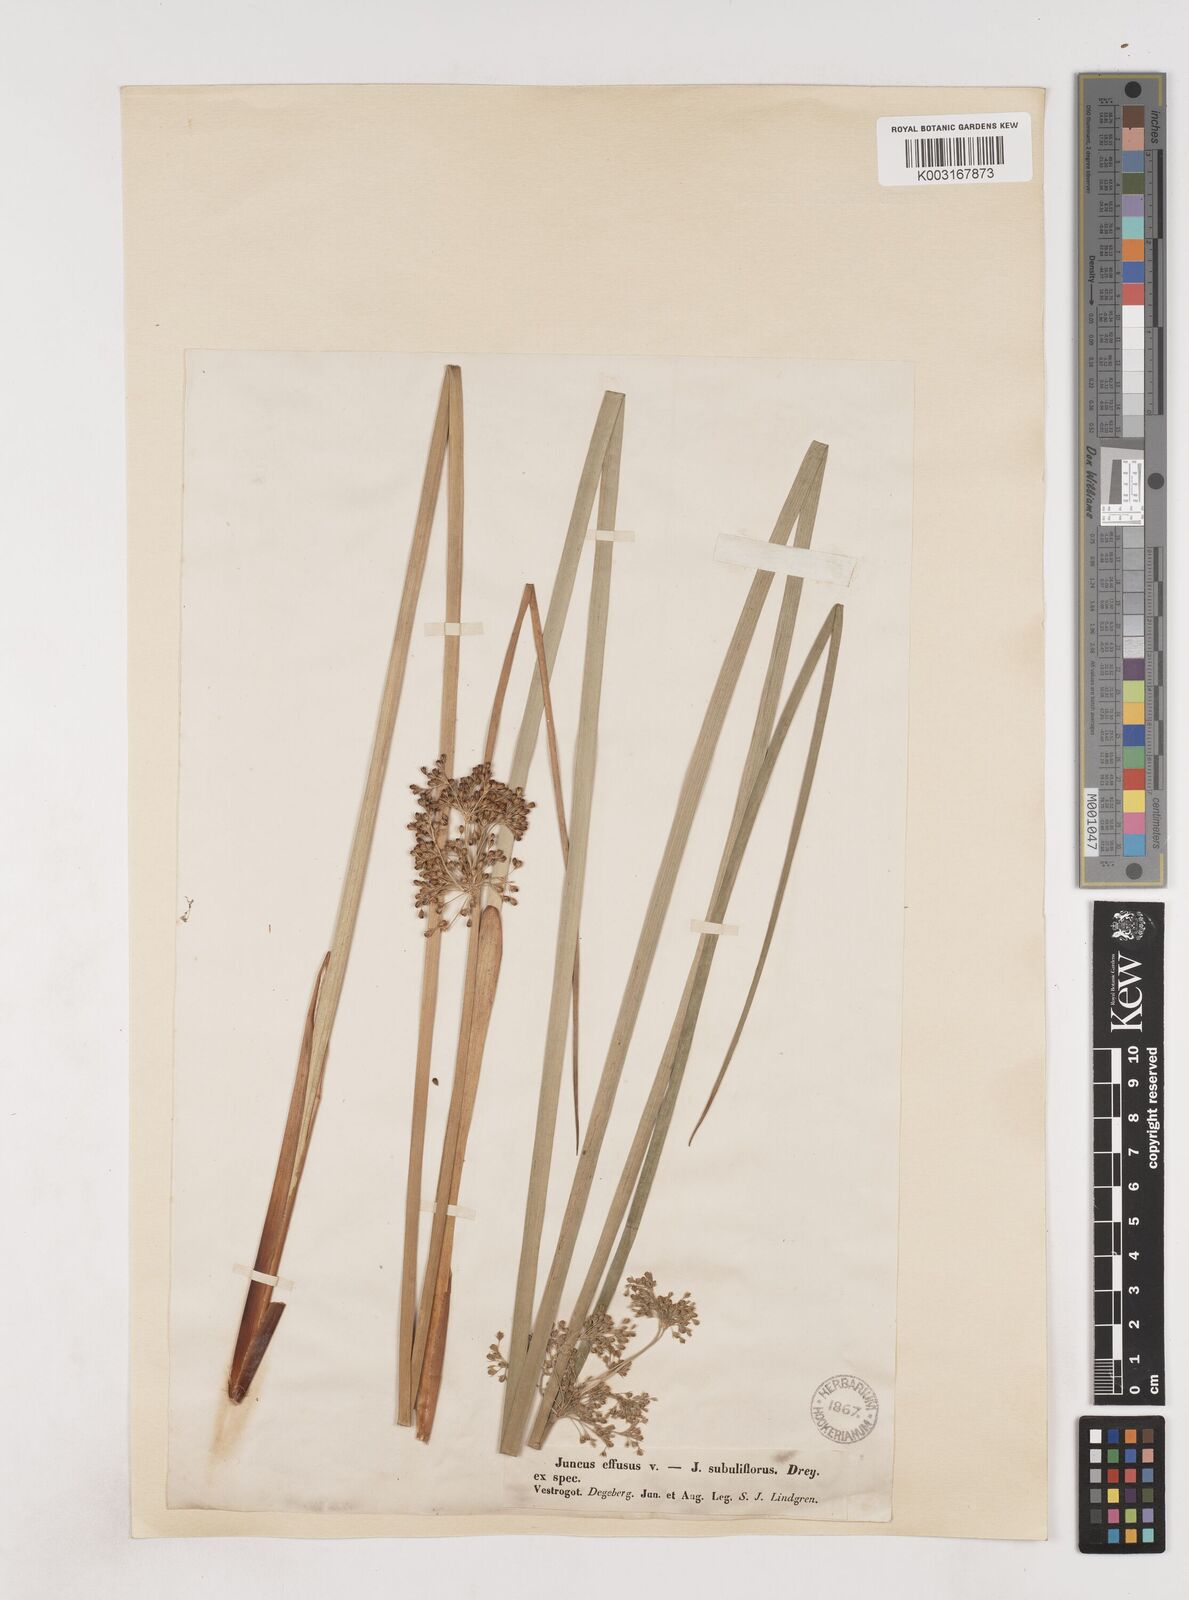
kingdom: Plantae
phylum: Tracheophyta
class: Liliopsida
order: Poales
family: Juncaceae
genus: Juncus
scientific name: Juncus effusus
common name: Soft rush
